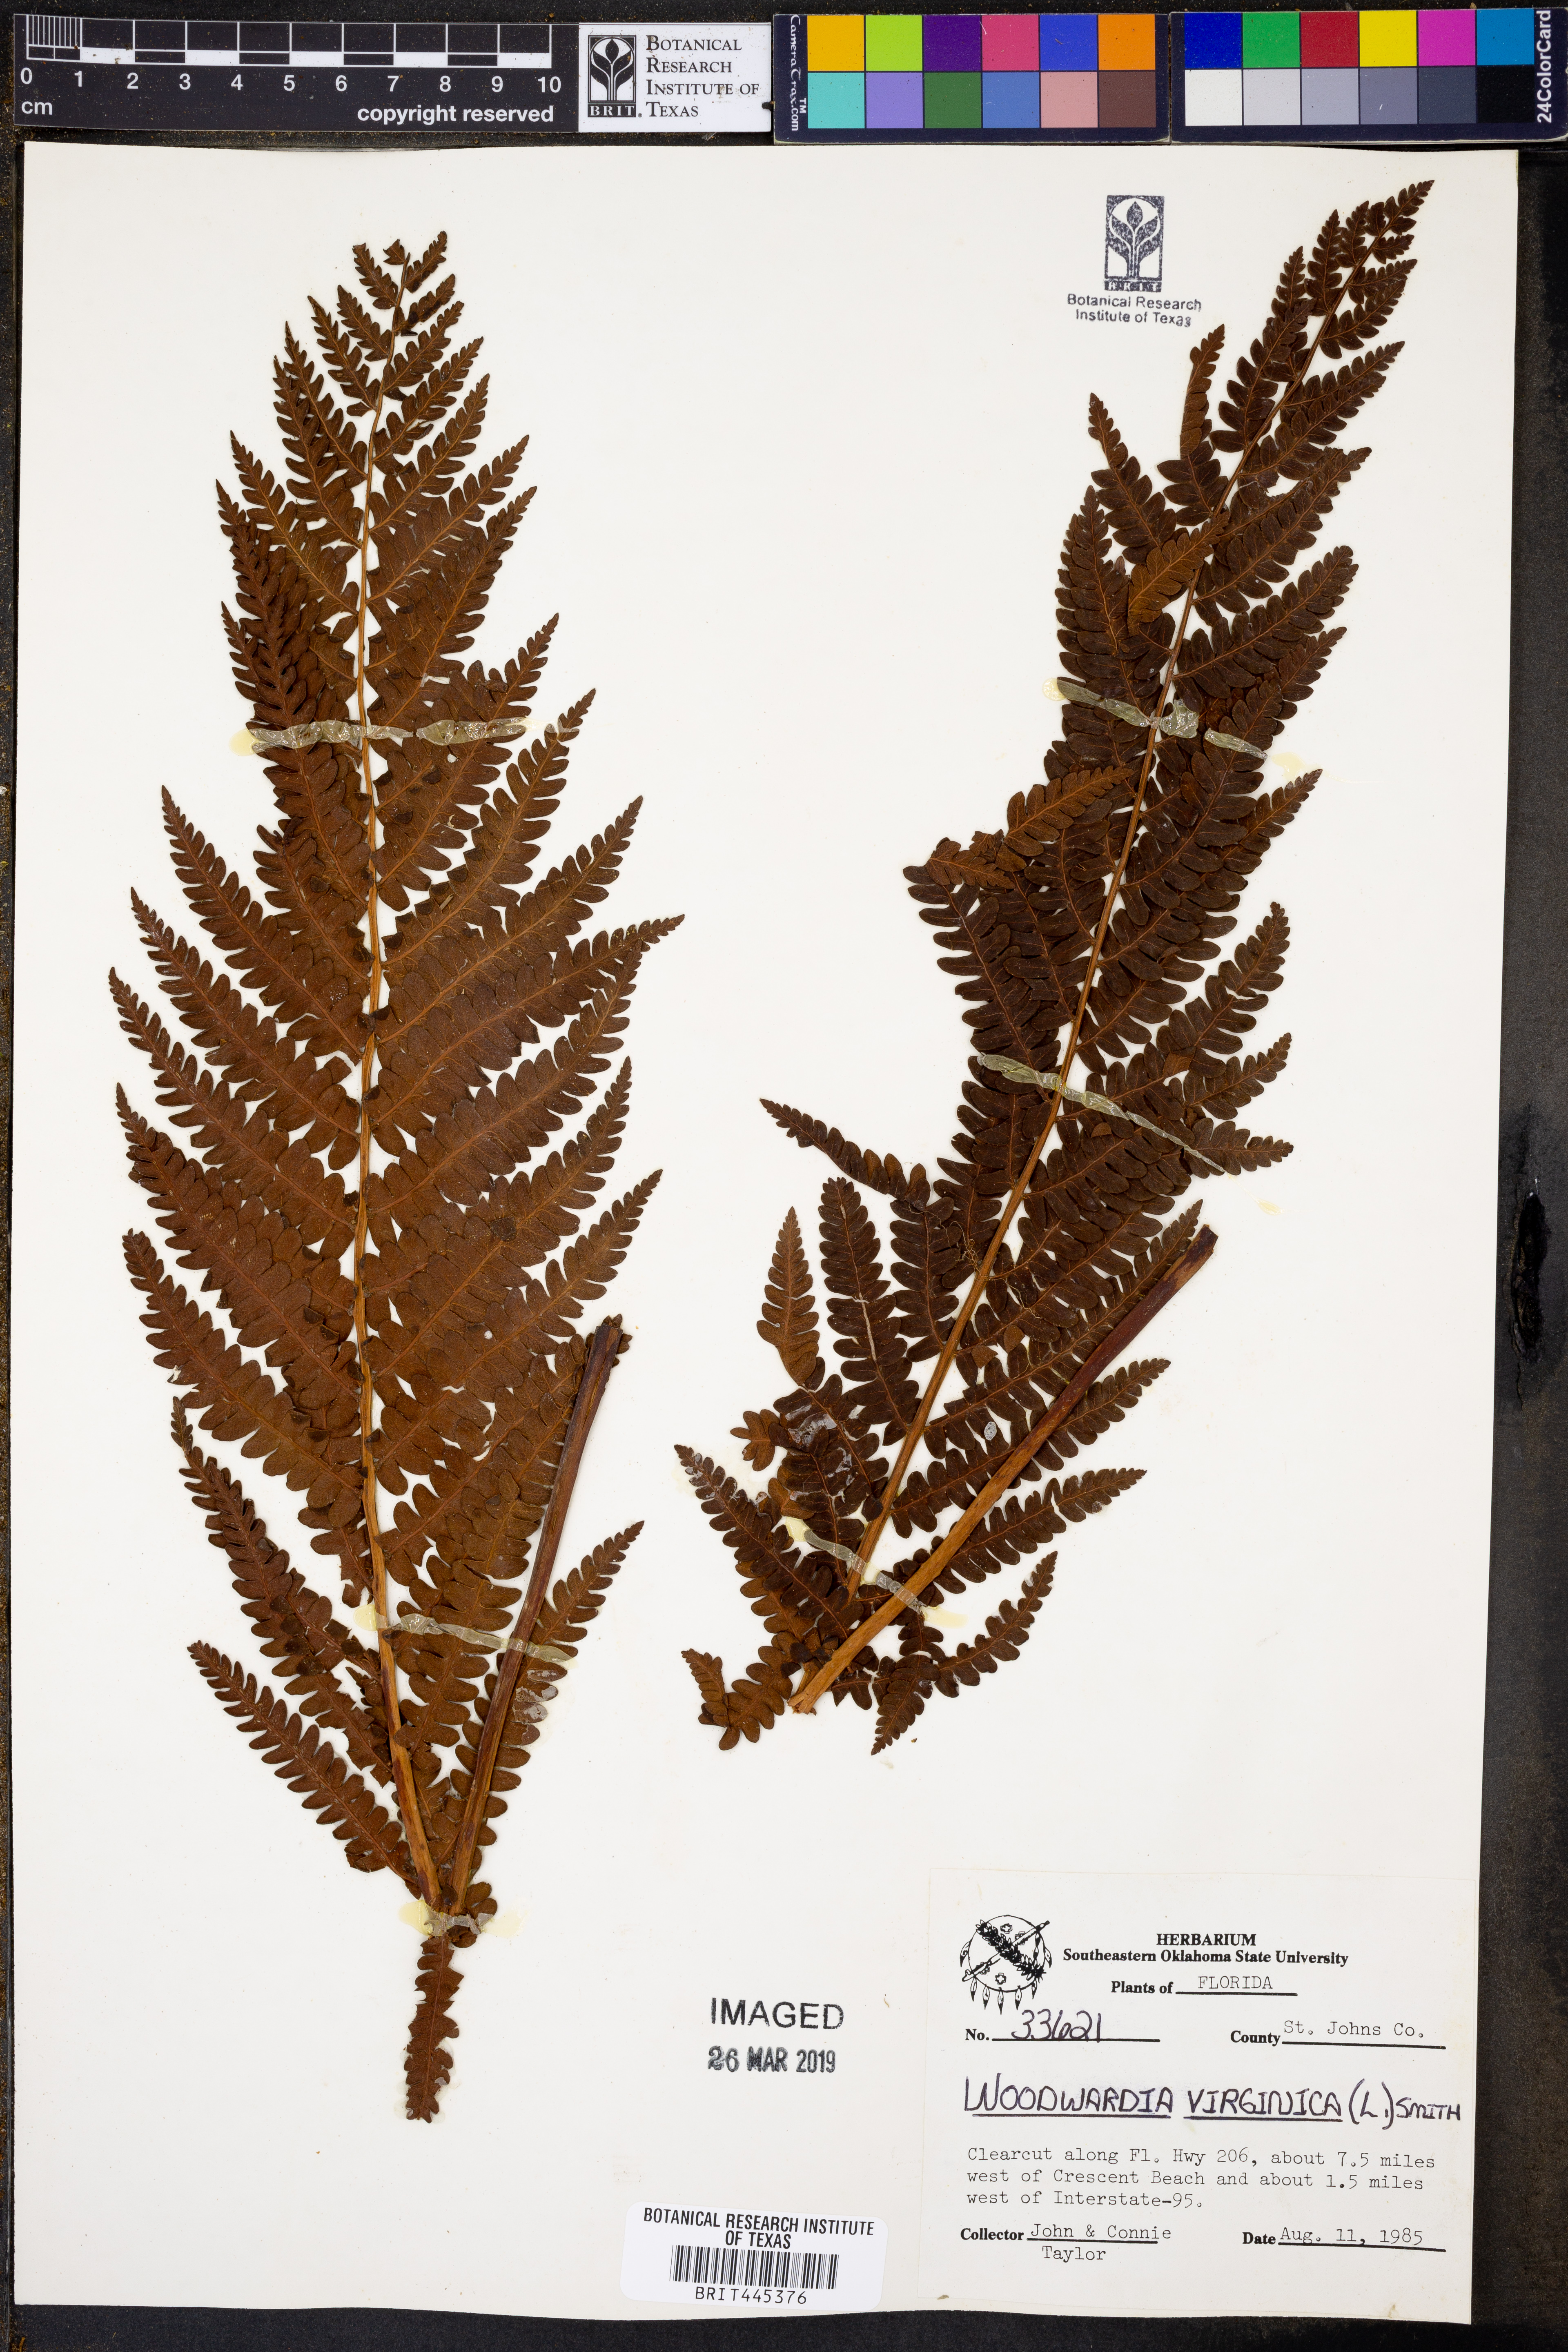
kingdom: Plantae
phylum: Tracheophyta
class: Polypodiopsida
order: Polypodiales
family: Blechnaceae
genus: Anchistea
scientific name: Anchistea virginica
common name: Virginia chain fern
